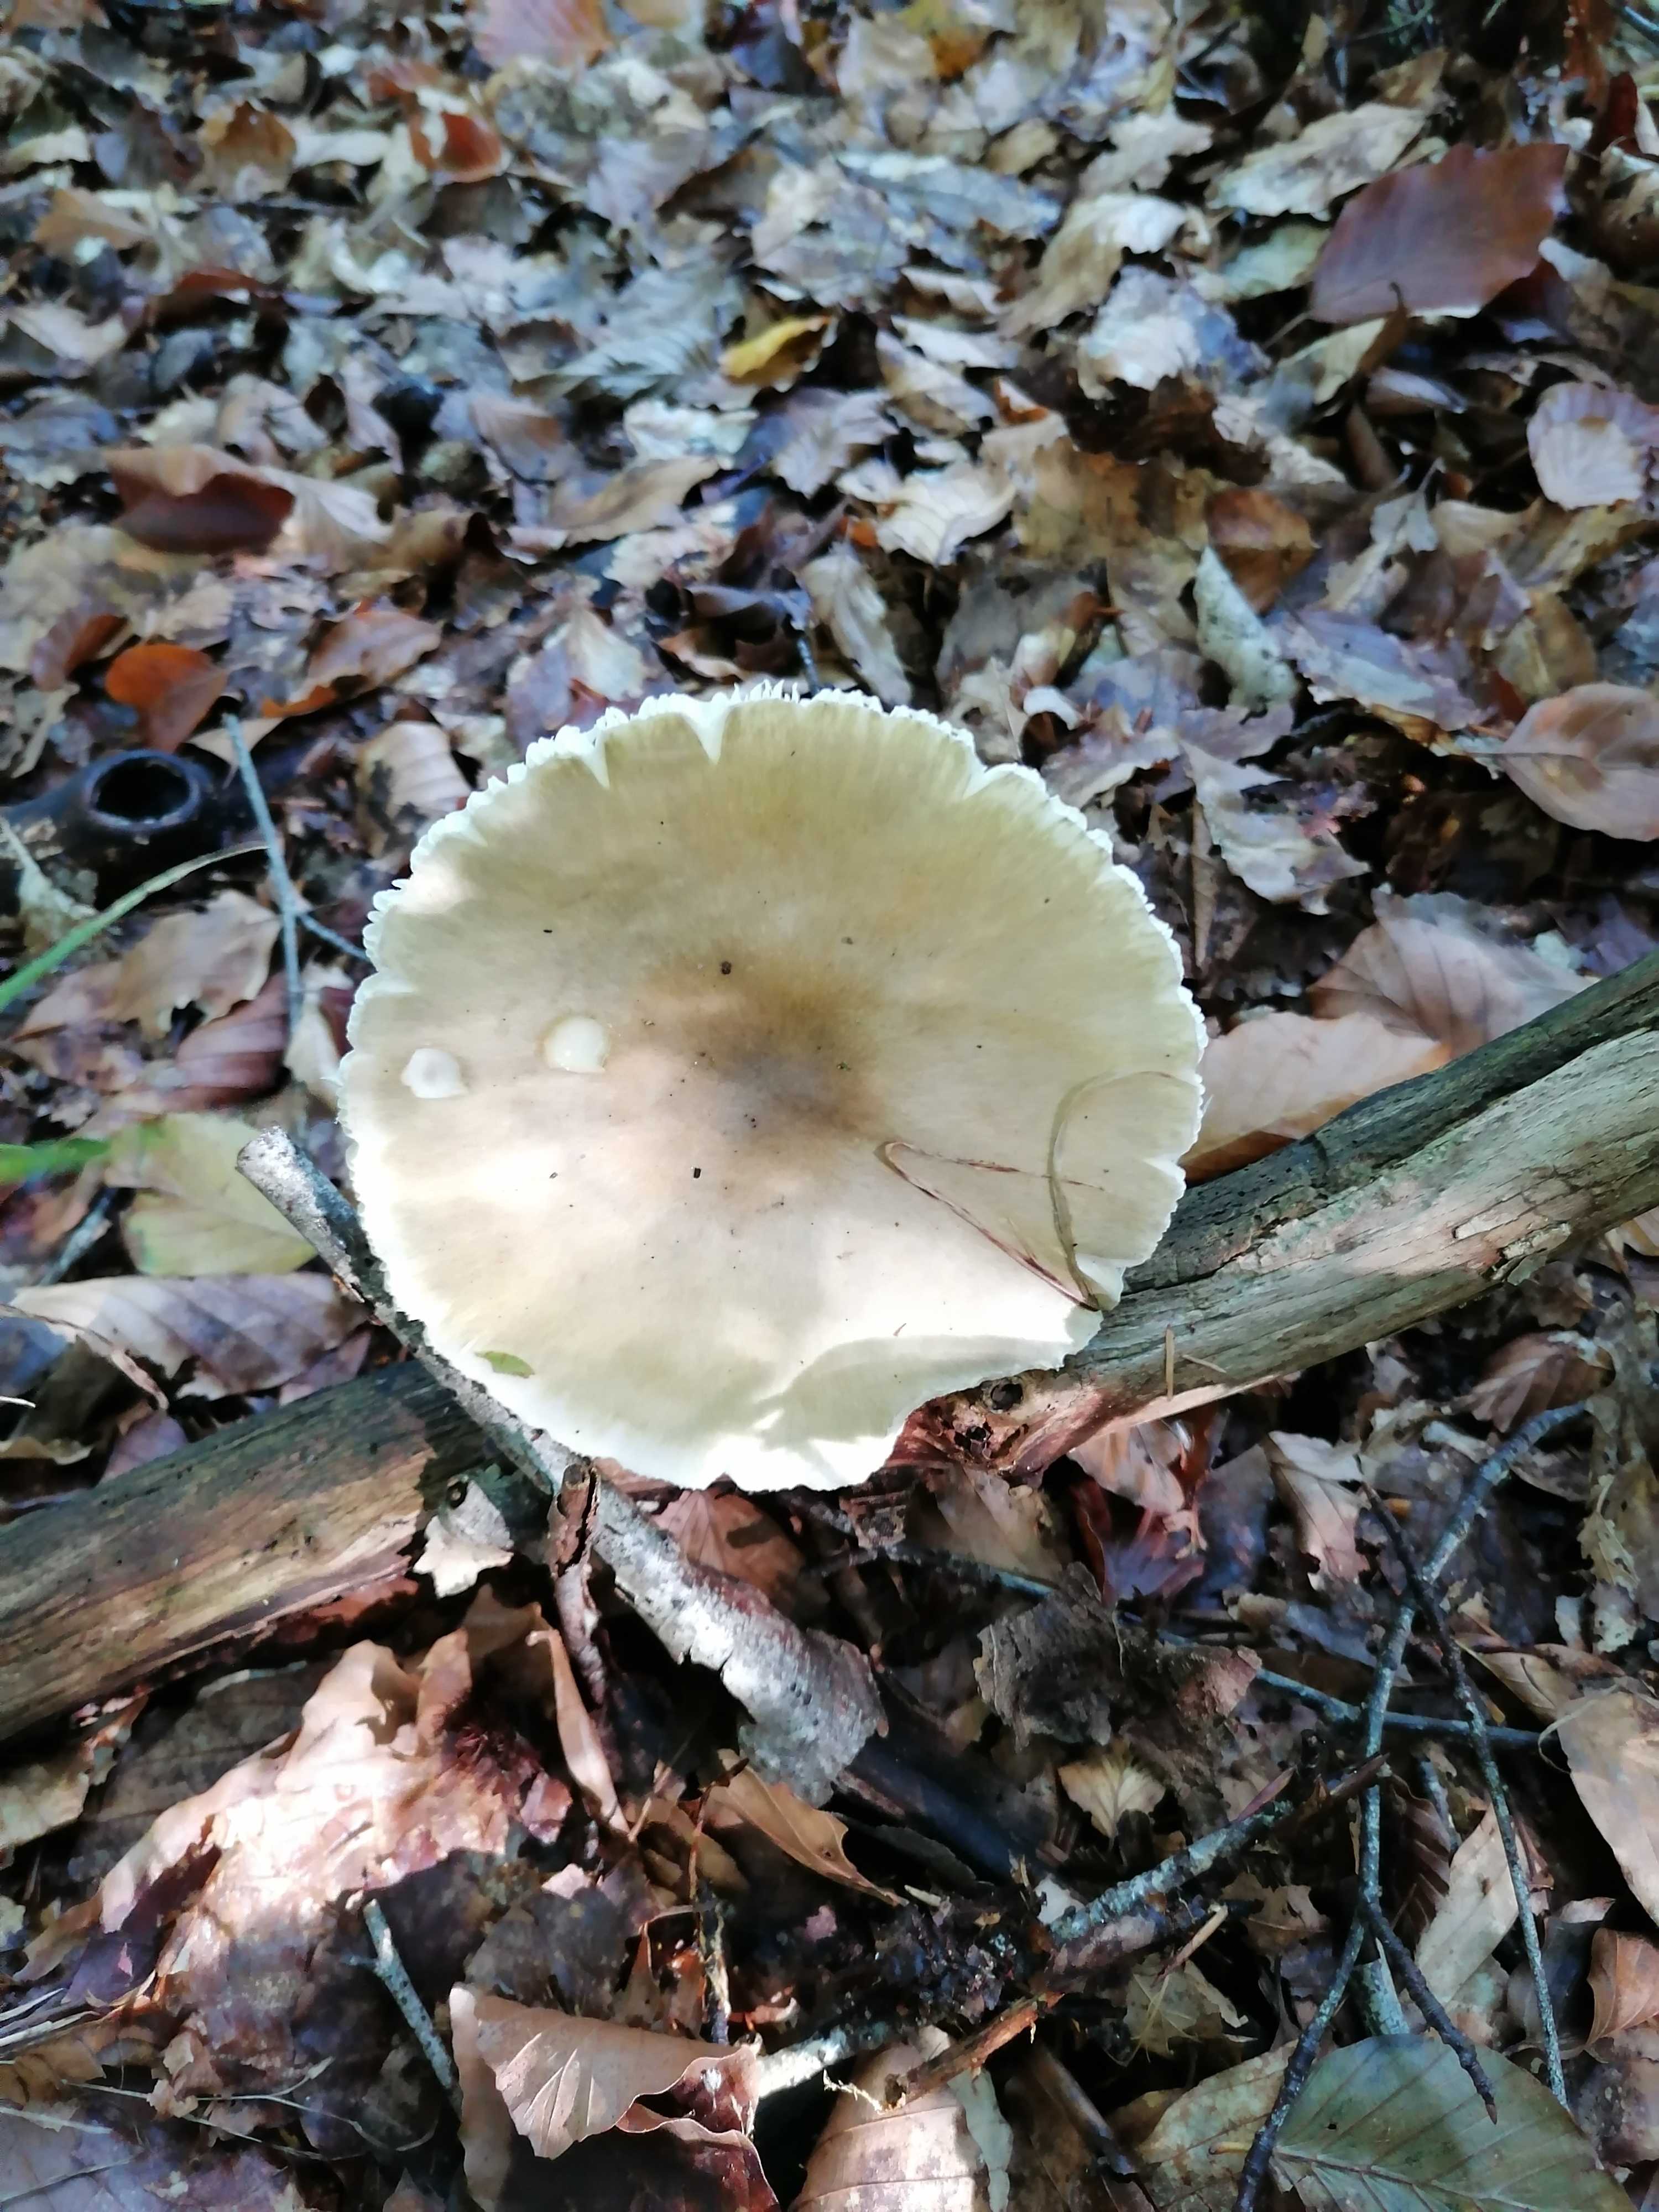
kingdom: Fungi
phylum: Basidiomycota
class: Agaricomycetes
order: Agaricales
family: Amanitaceae
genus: Amanita
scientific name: Amanita phalloides
